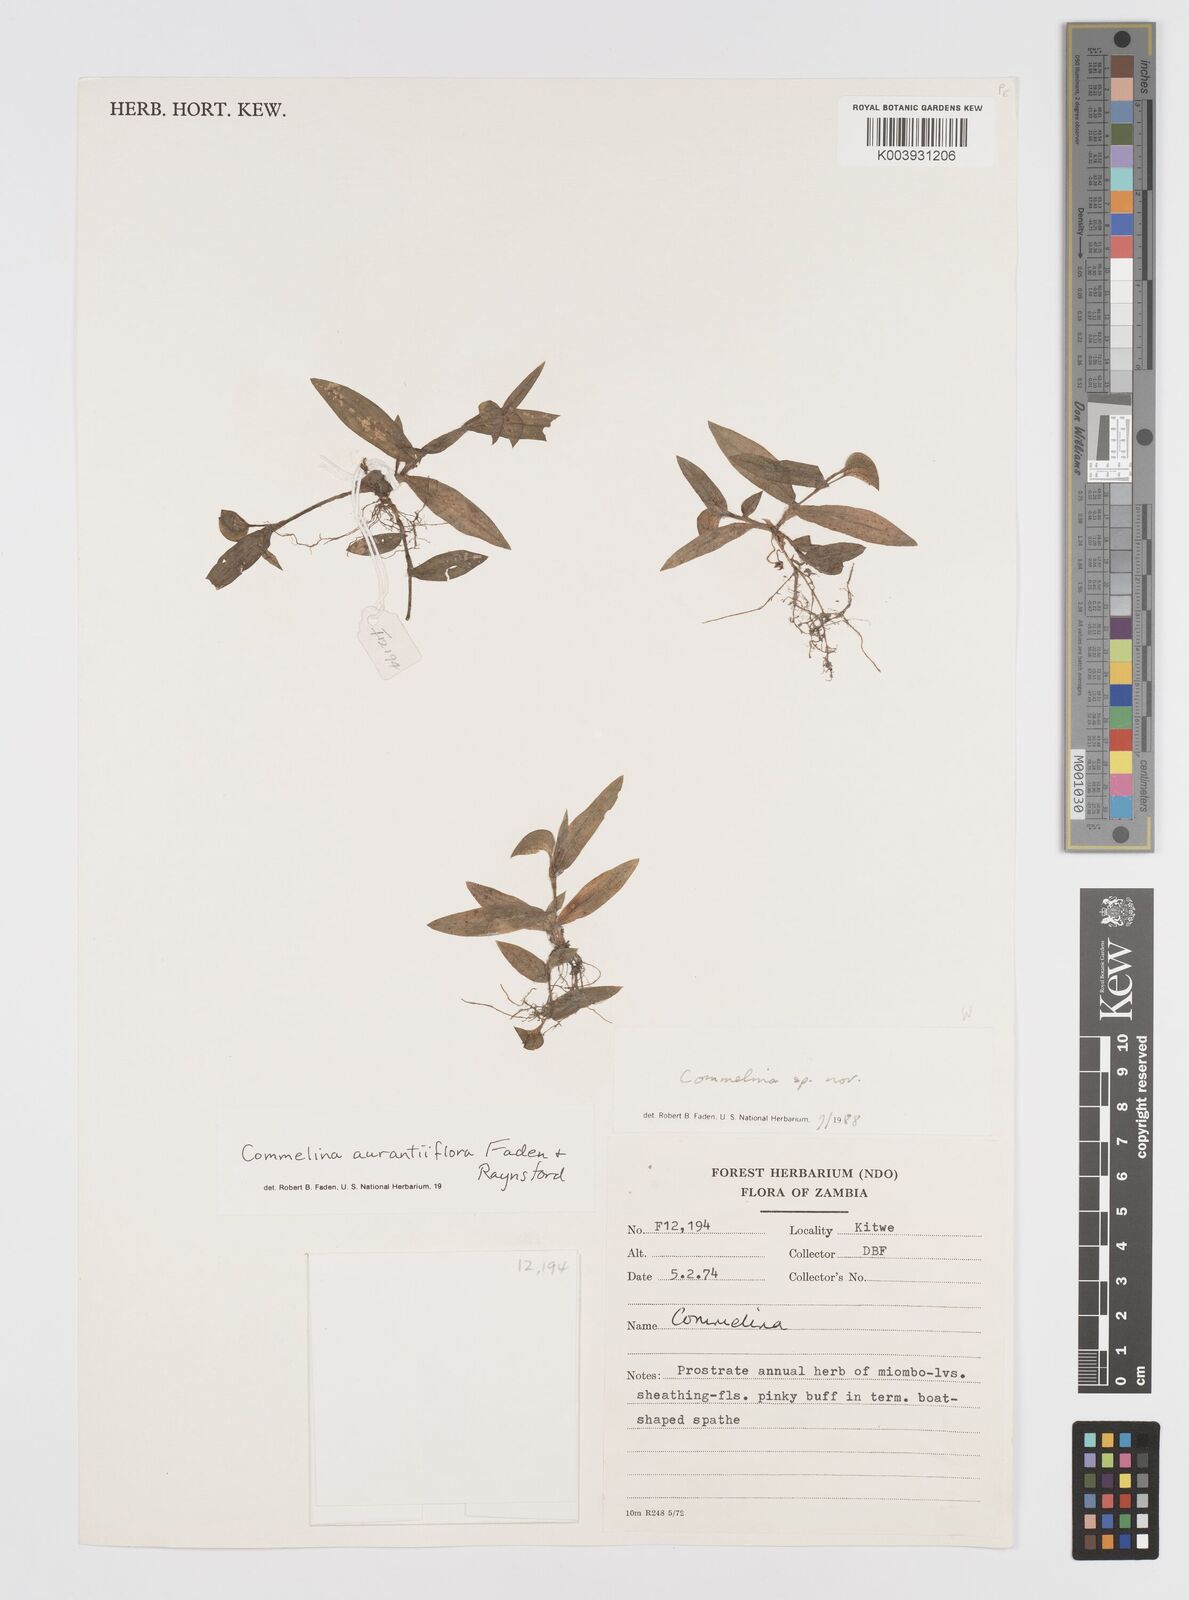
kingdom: Plantae
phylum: Tracheophyta
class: Liliopsida
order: Commelinales
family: Commelinaceae
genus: Commelina
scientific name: Commelina aurantiiflora
